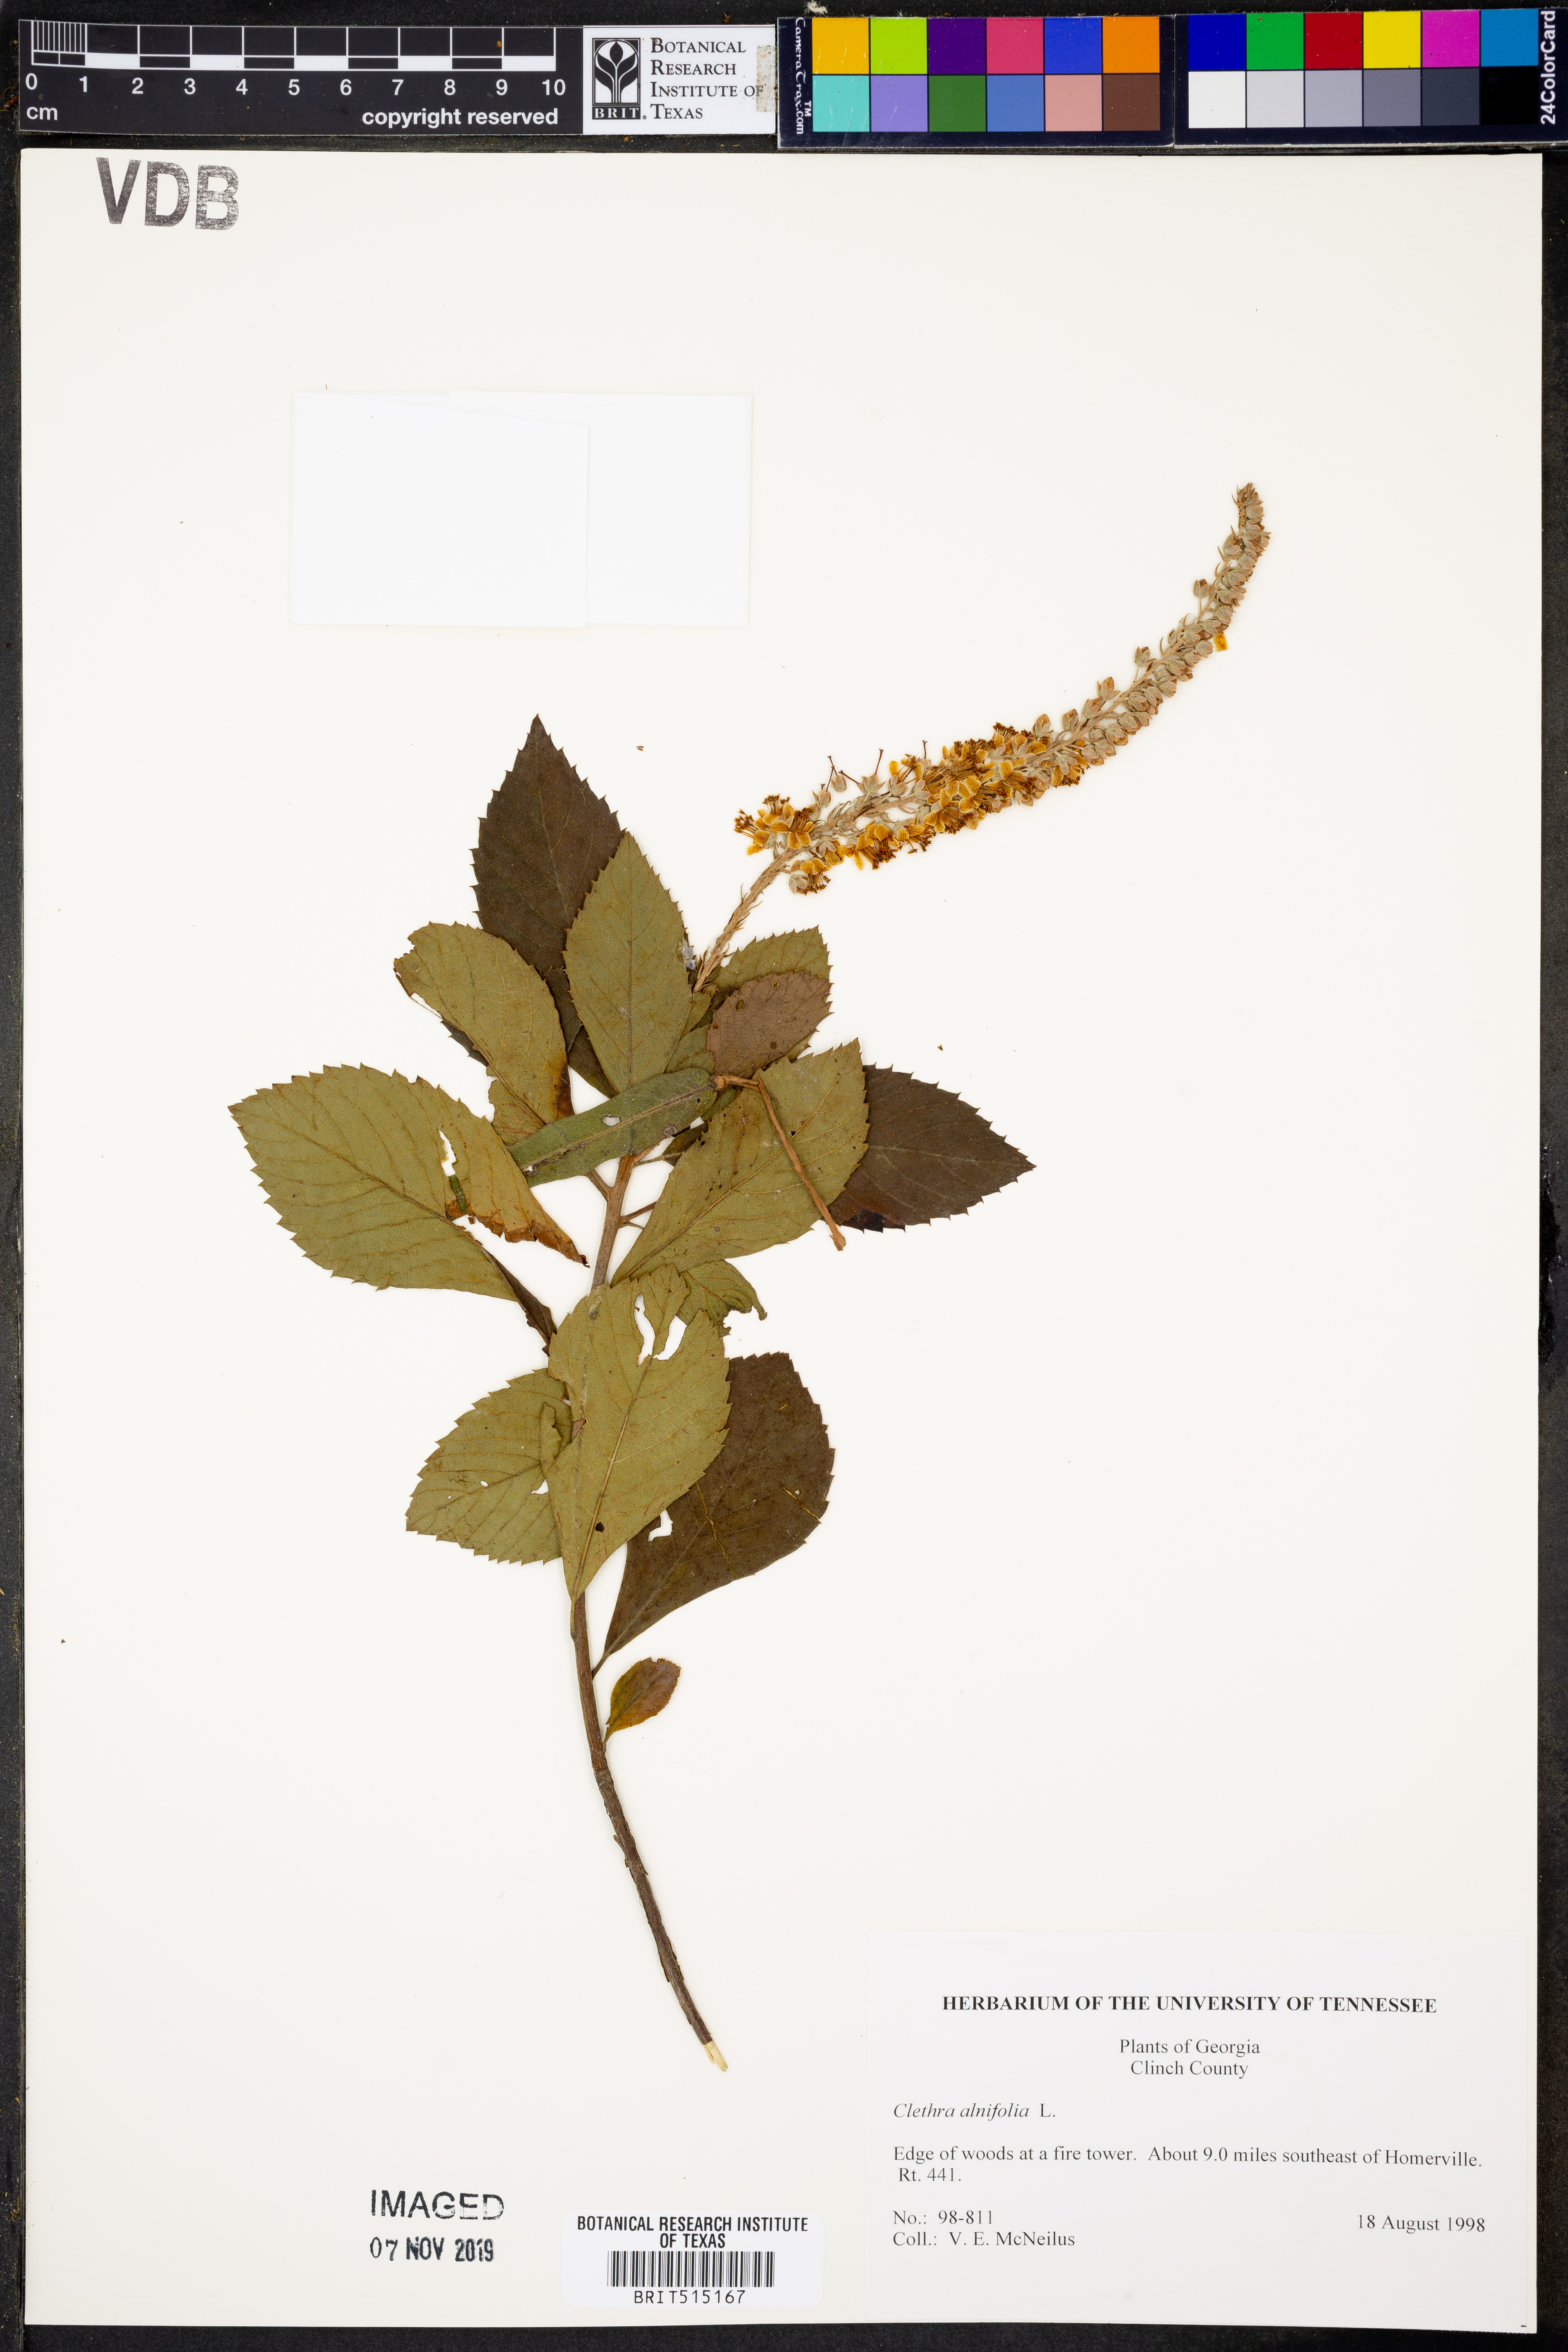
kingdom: Plantae
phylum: Tracheophyta
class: Magnoliopsida
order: Ericales
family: Clethraceae
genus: Clethra
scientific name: Clethra alnifolia
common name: Sweet pepperbush
